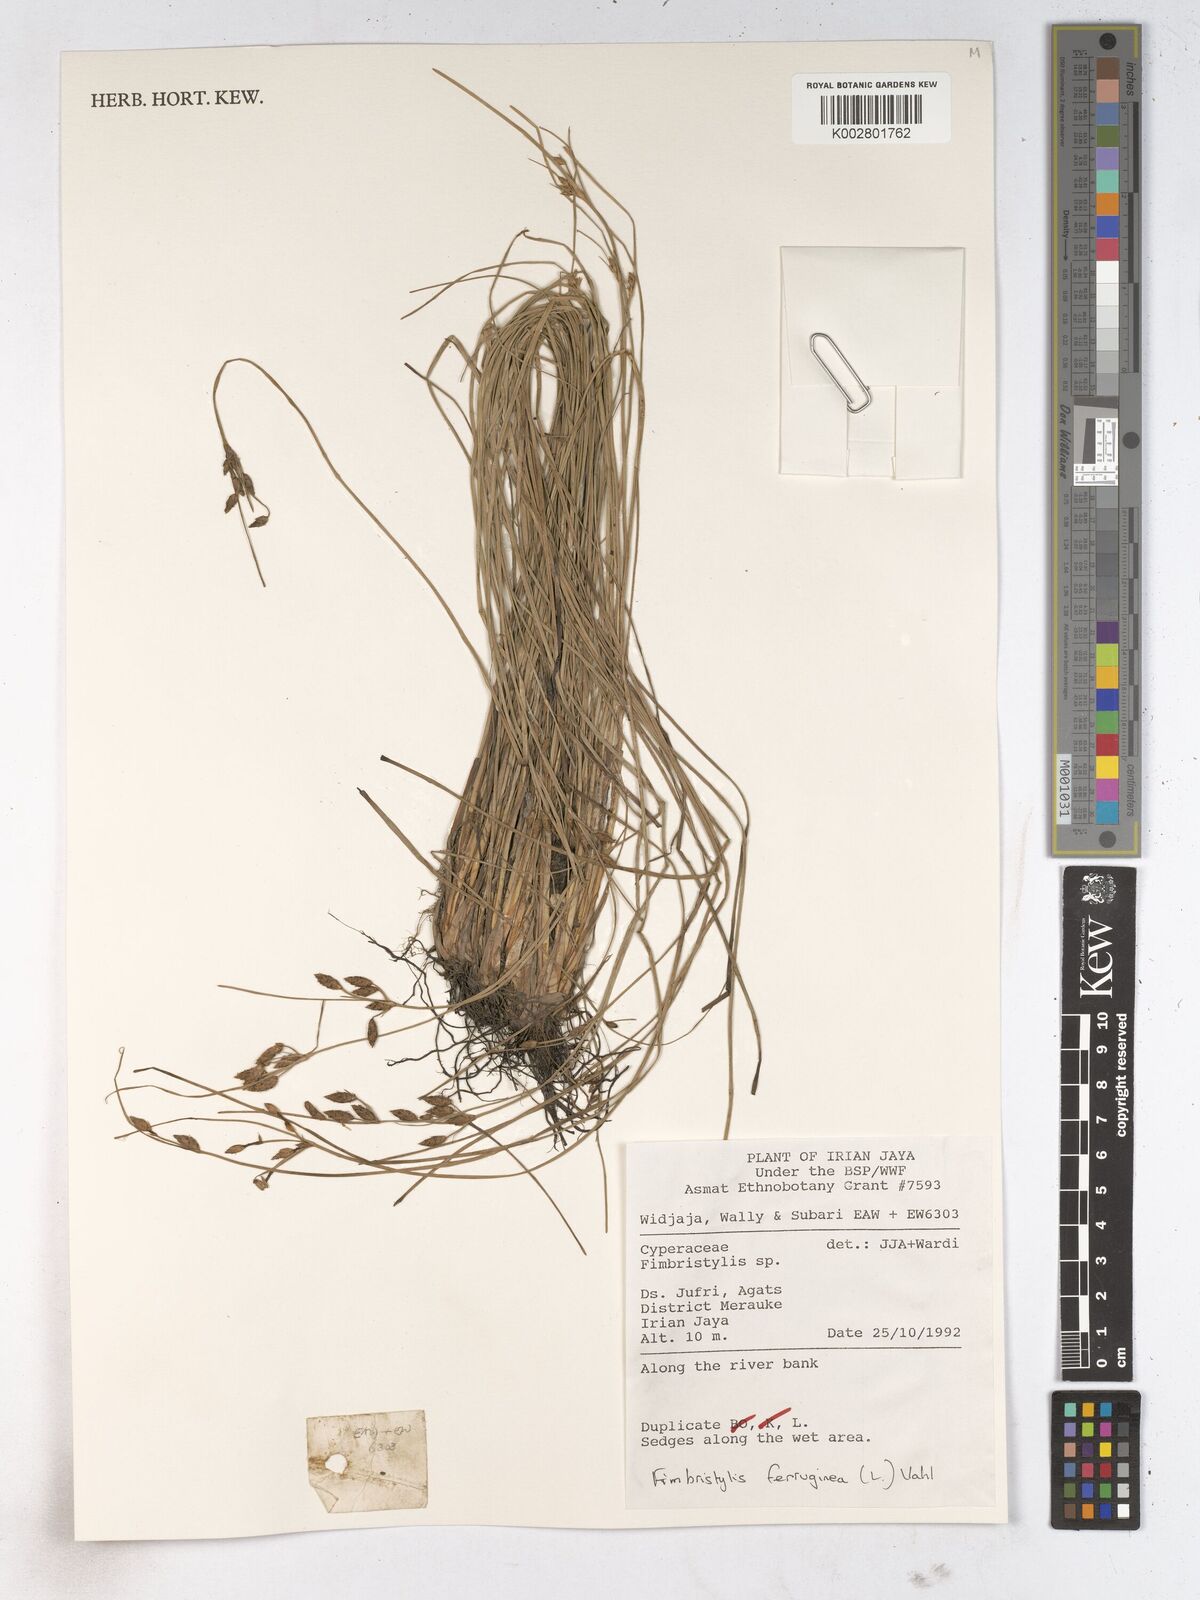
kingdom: Plantae
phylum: Tracheophyta
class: Liliopsida
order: Poales
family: Cyperaceae
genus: Fimbristylis
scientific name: Fimbristylis ferruginea
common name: West indian fimbry
